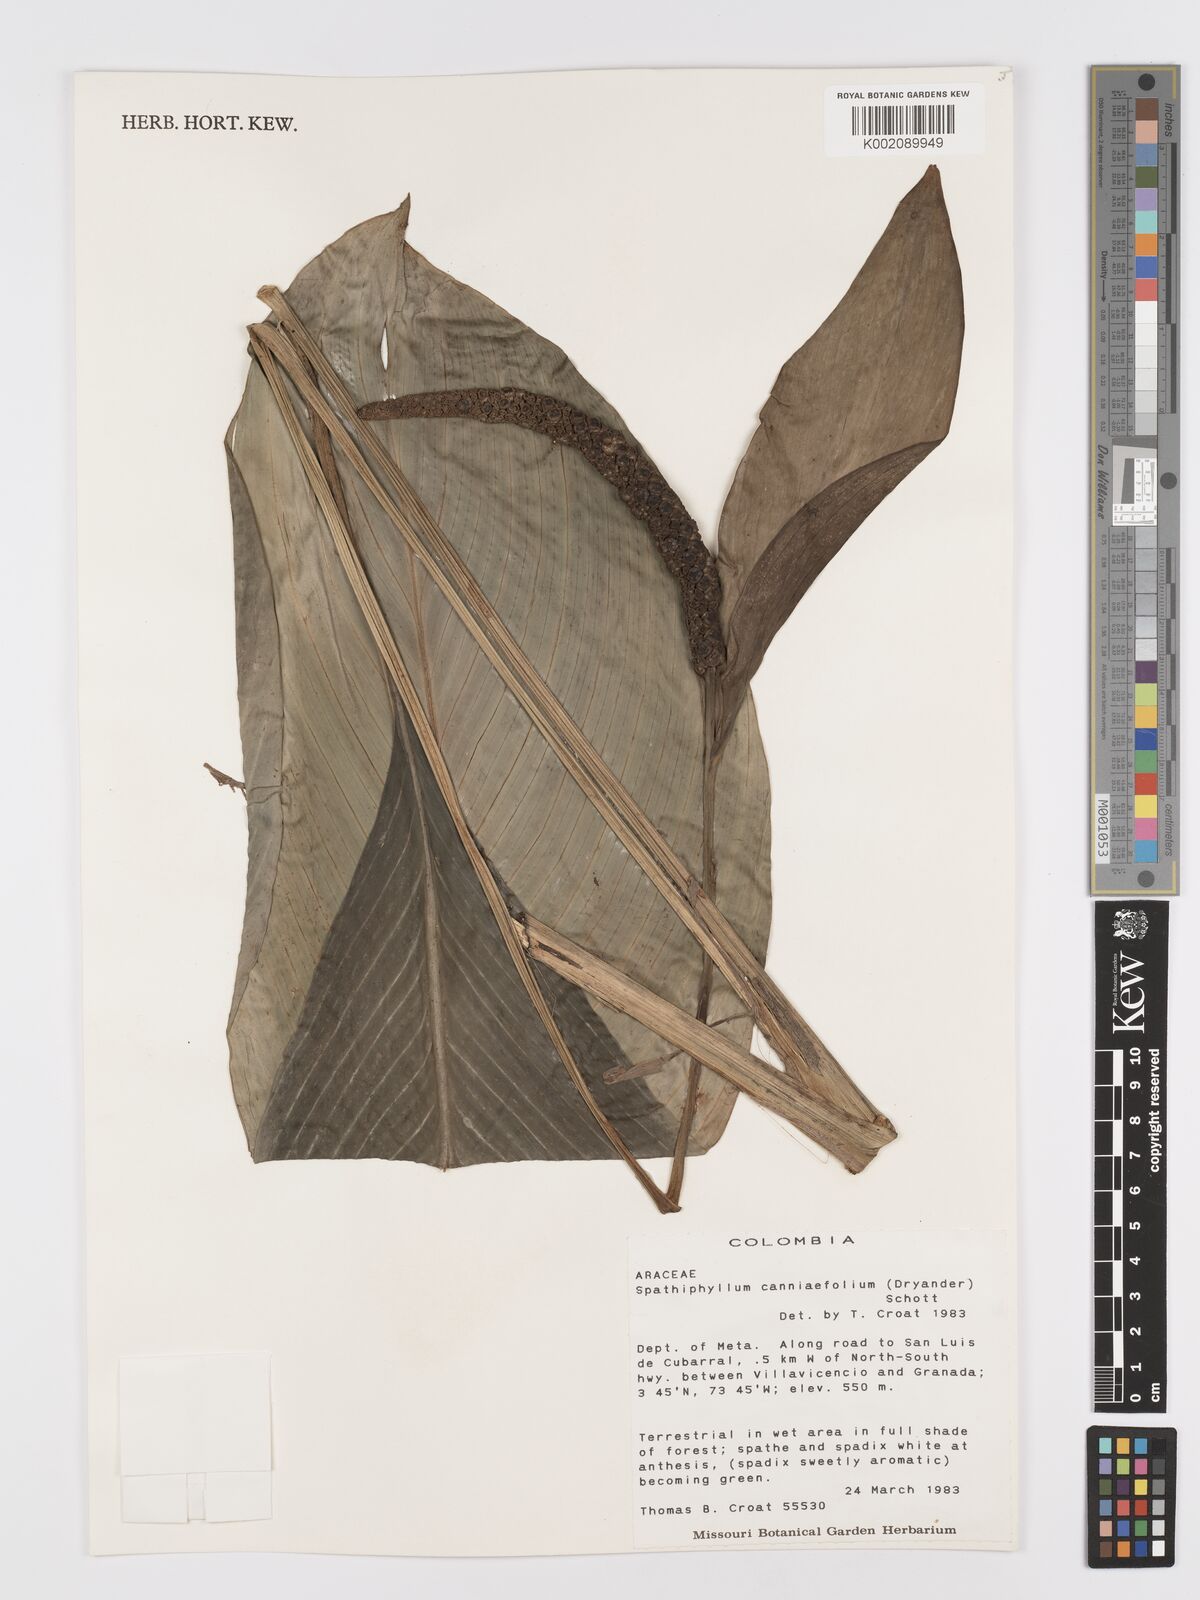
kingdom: Plantae
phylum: Tracheophyta
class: Liliopsida
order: Alismatales
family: Araceae
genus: Spathiphyllum
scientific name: Spathiphyllum cannifolium
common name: Spatheflower
